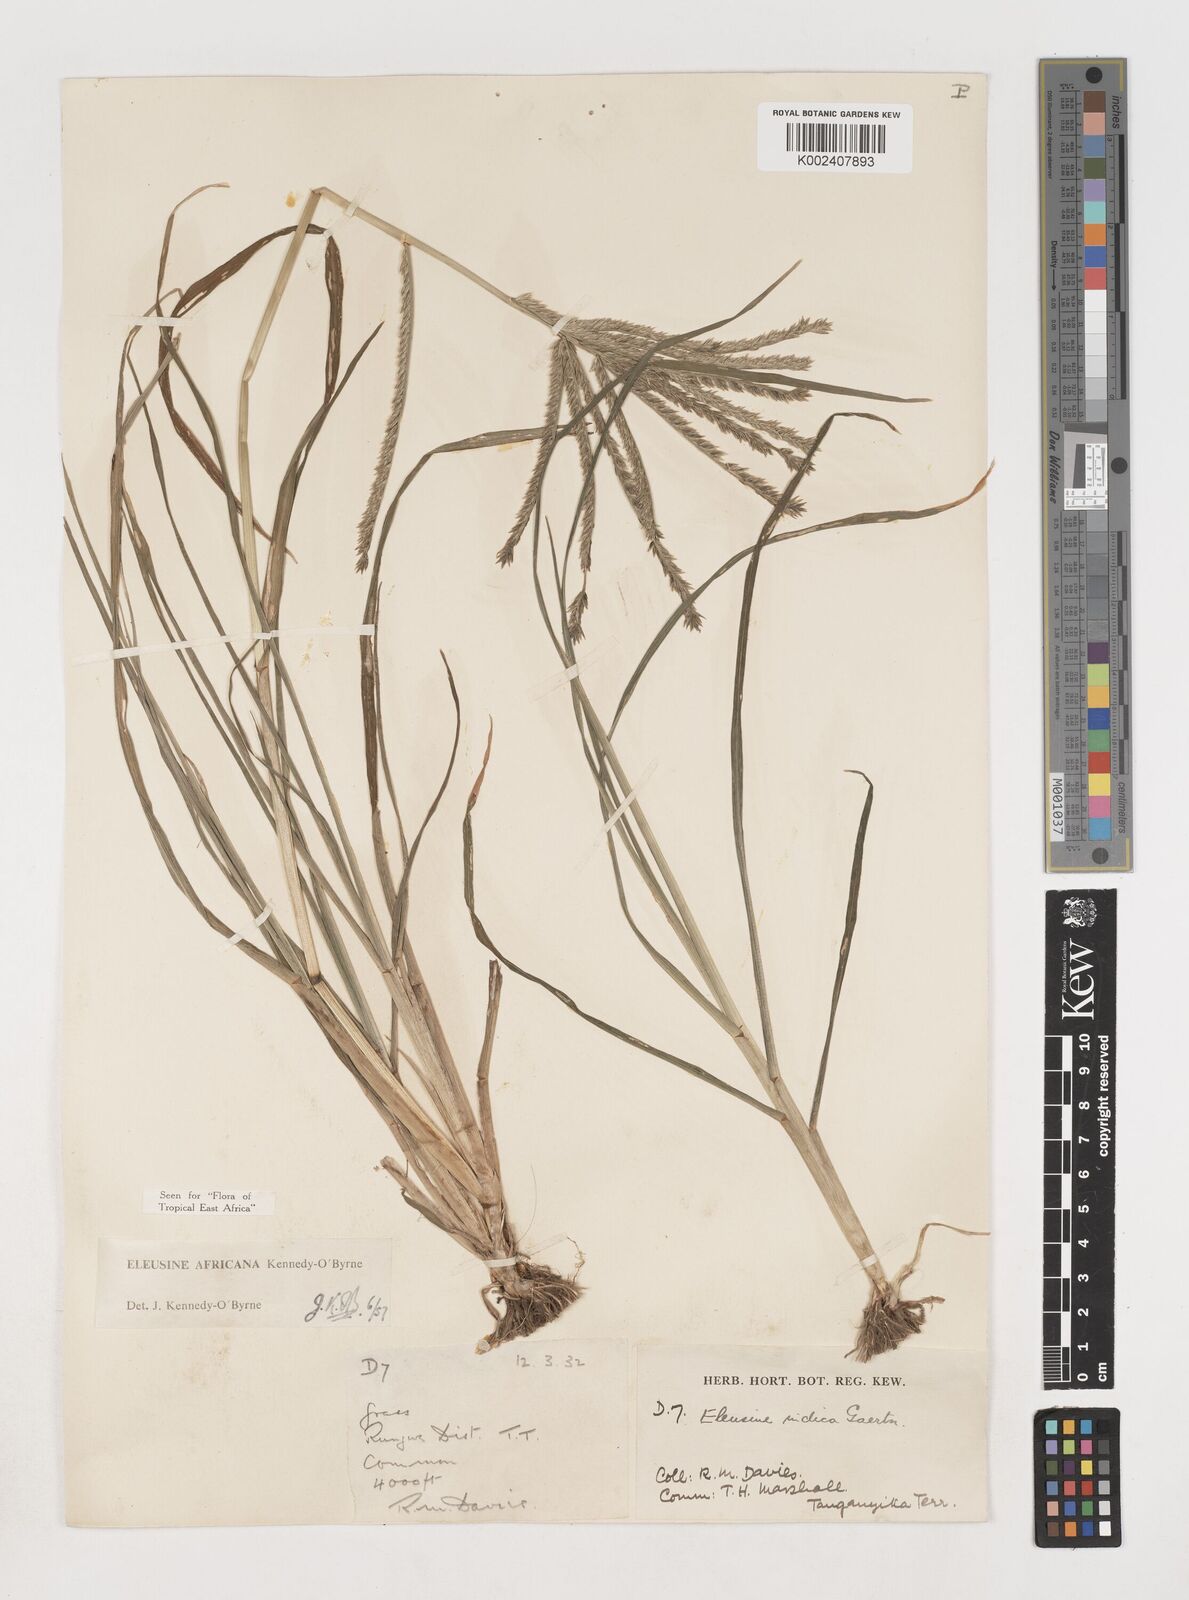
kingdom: Plantae
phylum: Tracheophyta
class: Liliopsida
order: Poales
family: Poaceae
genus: Eleusine
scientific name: Eleusine africana
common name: Wild african finger millet
